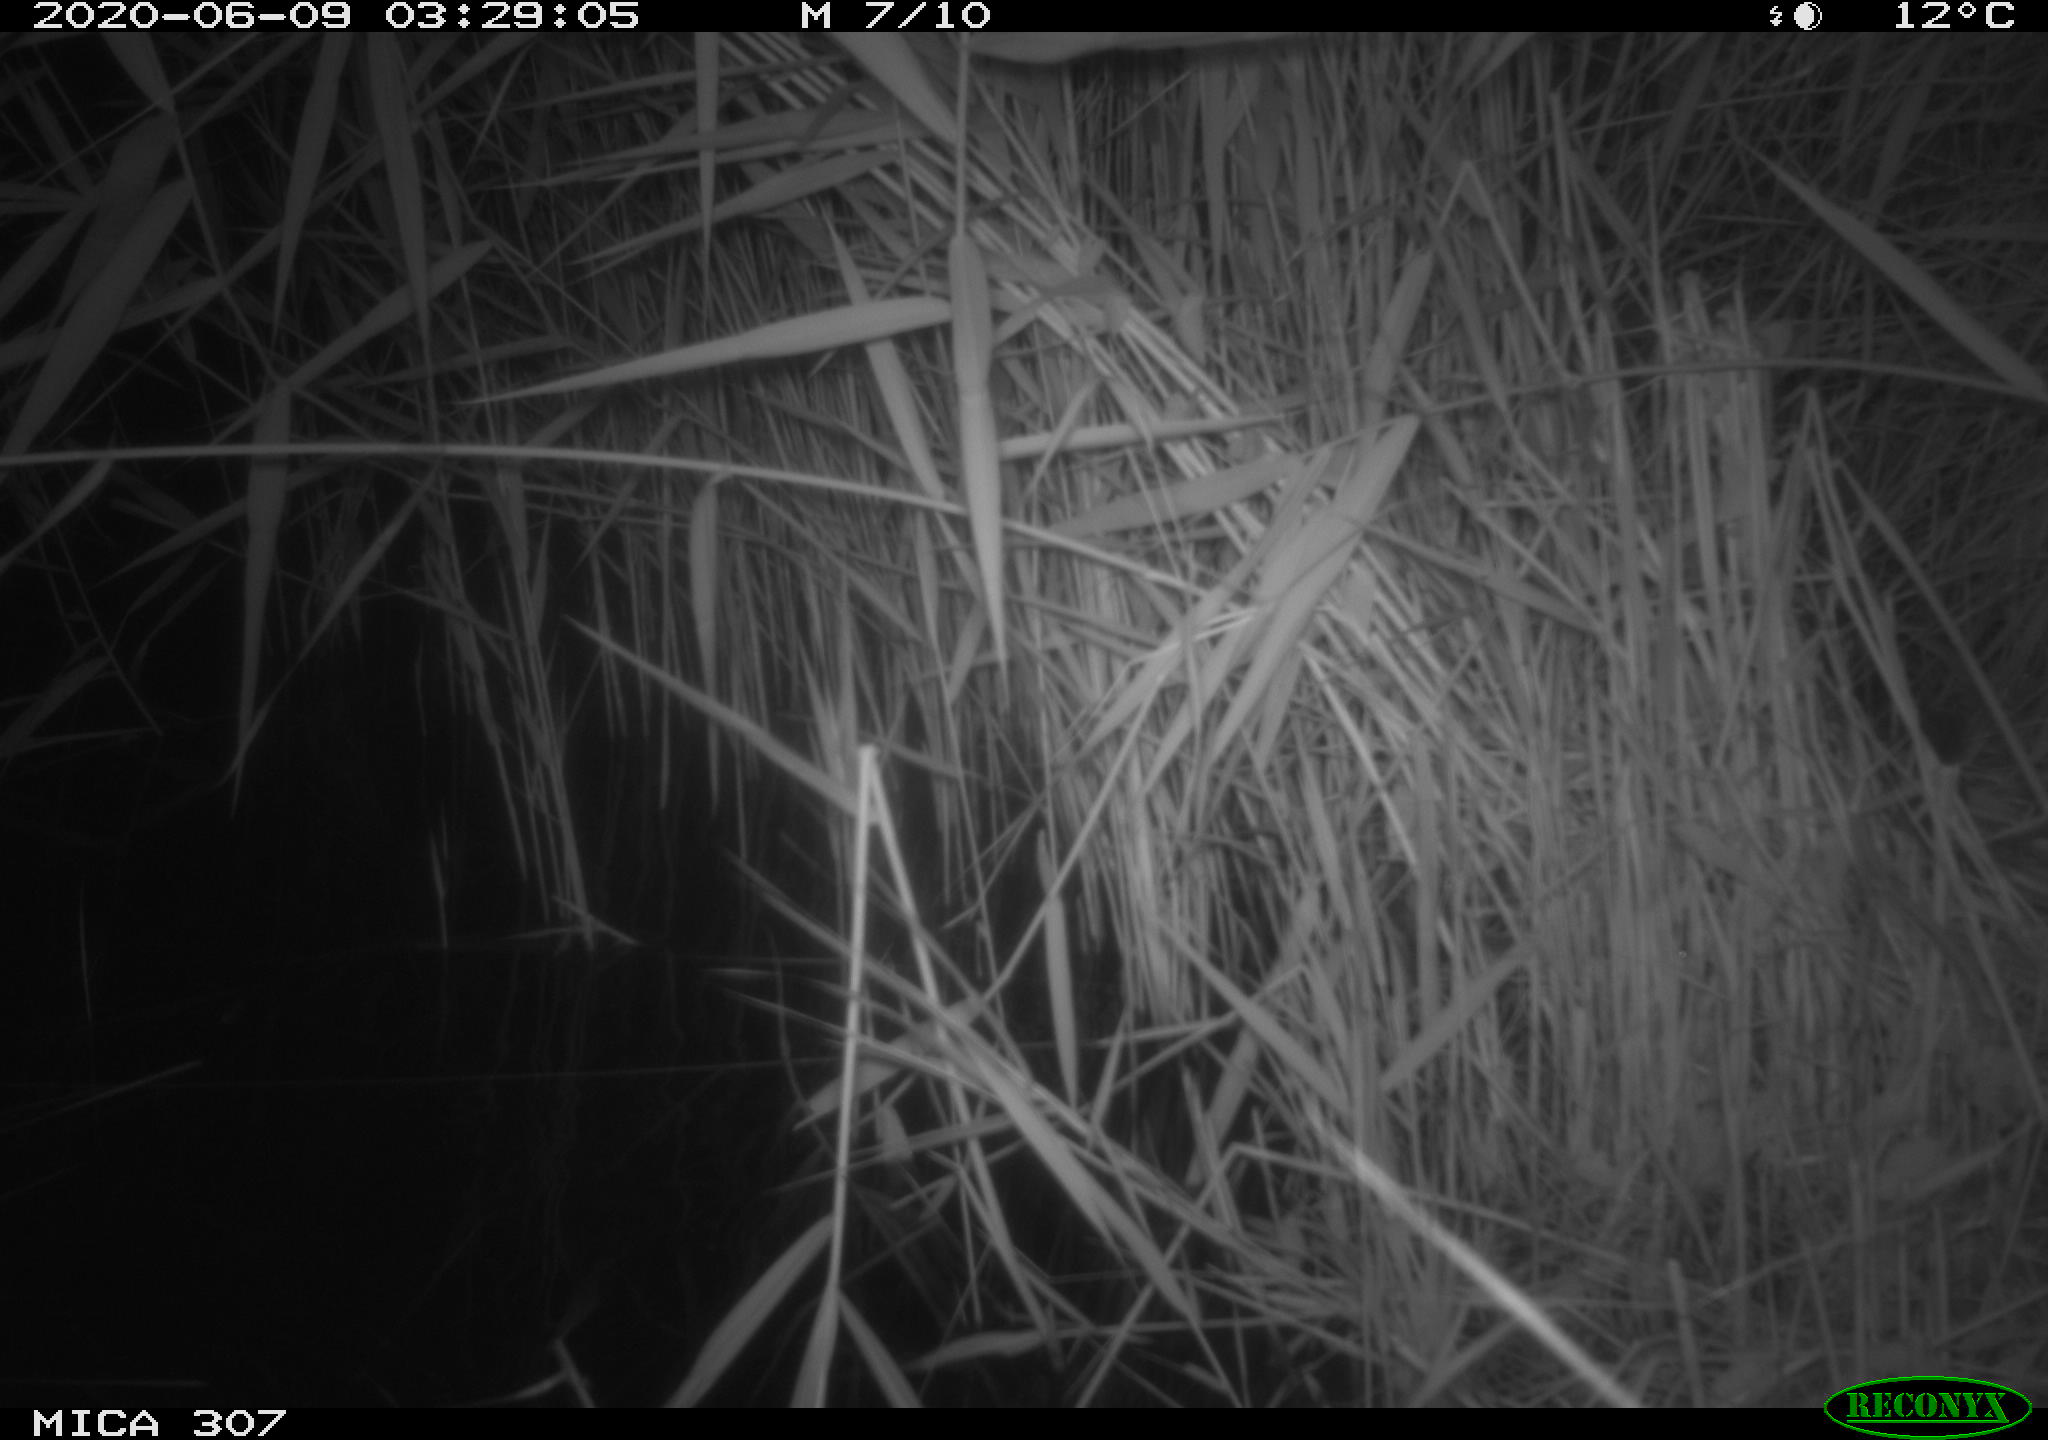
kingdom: Animalia
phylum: Chordata
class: Mammalia
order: Rodentia
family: Muridae
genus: Rattus
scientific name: Rattus norvegicus
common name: Brown rat
